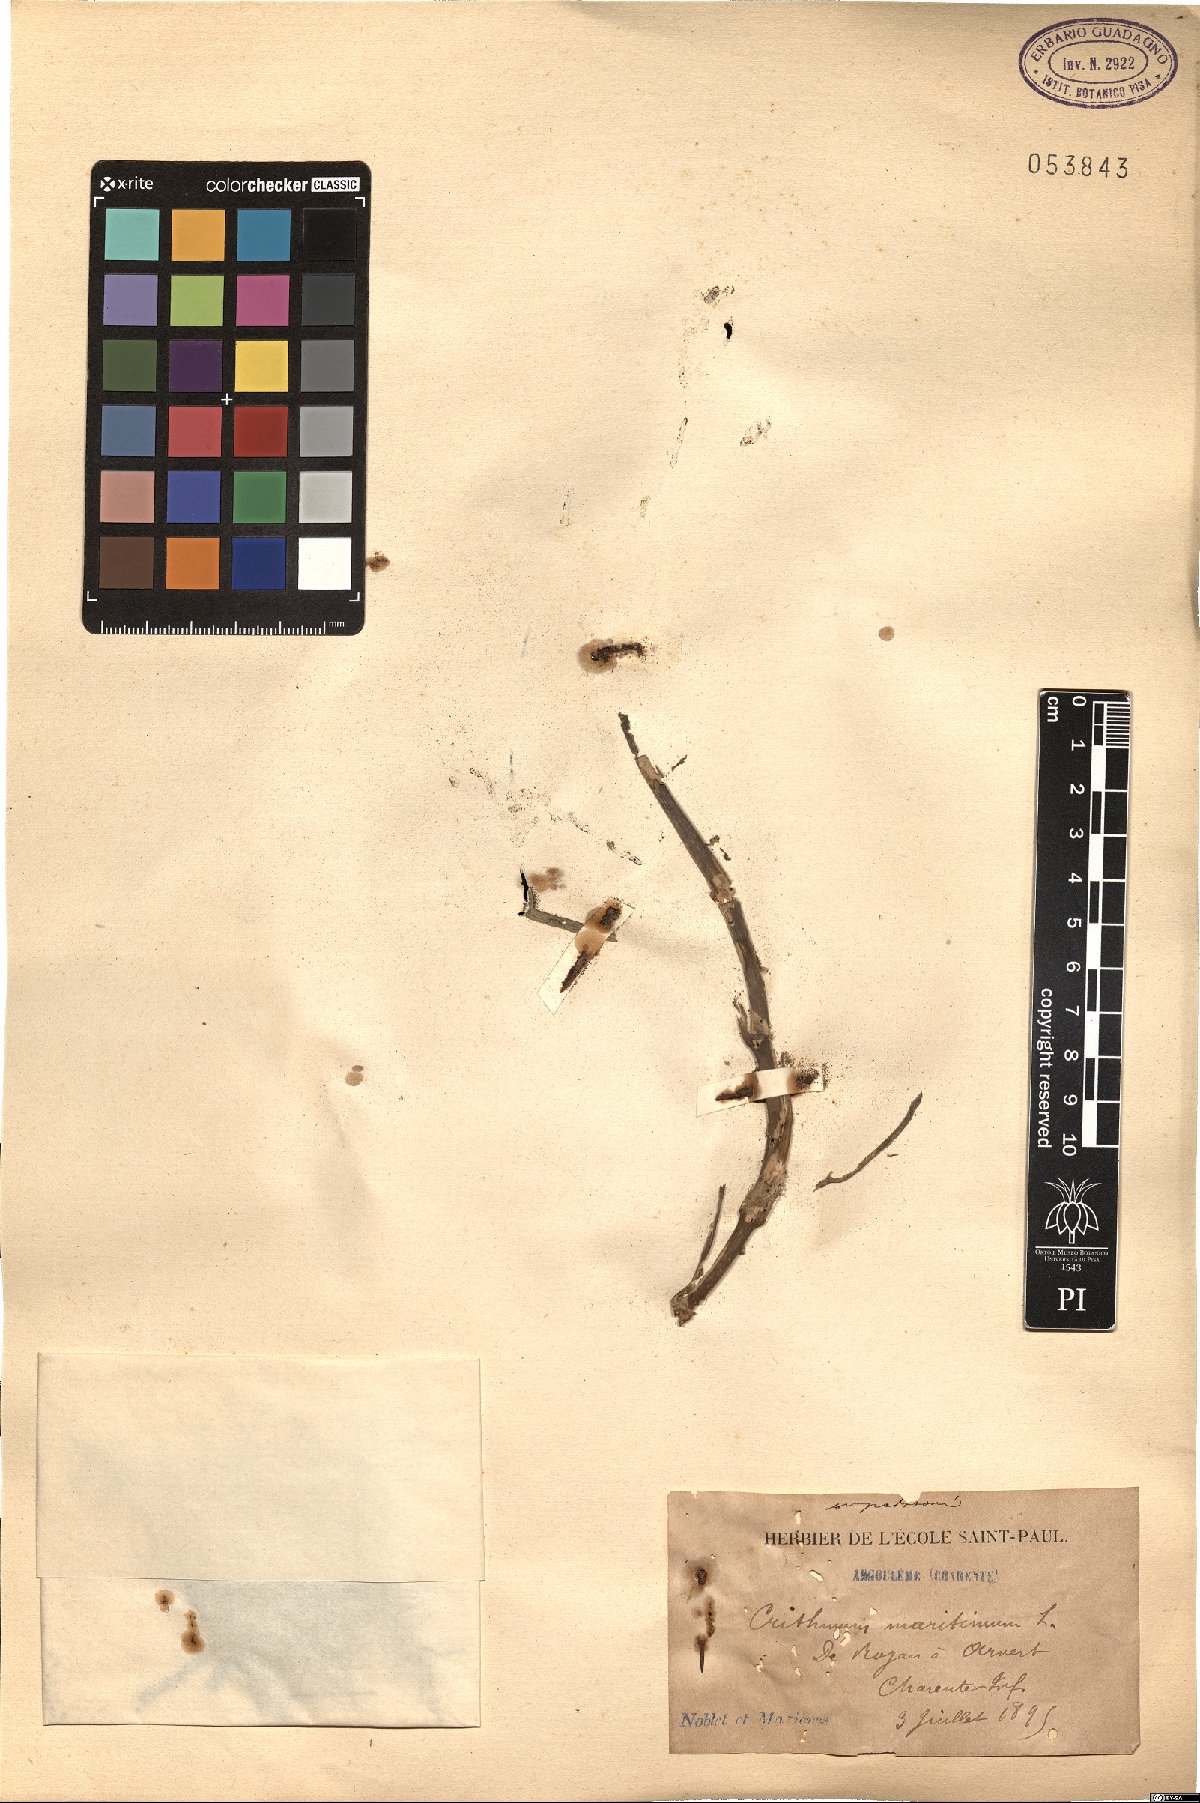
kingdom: Plantae
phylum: Tracheophyta
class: Magnoliopsida
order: Apiales
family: Apiaceae
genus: Crithmum
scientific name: Crithmum maritimum
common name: Rock samphire
